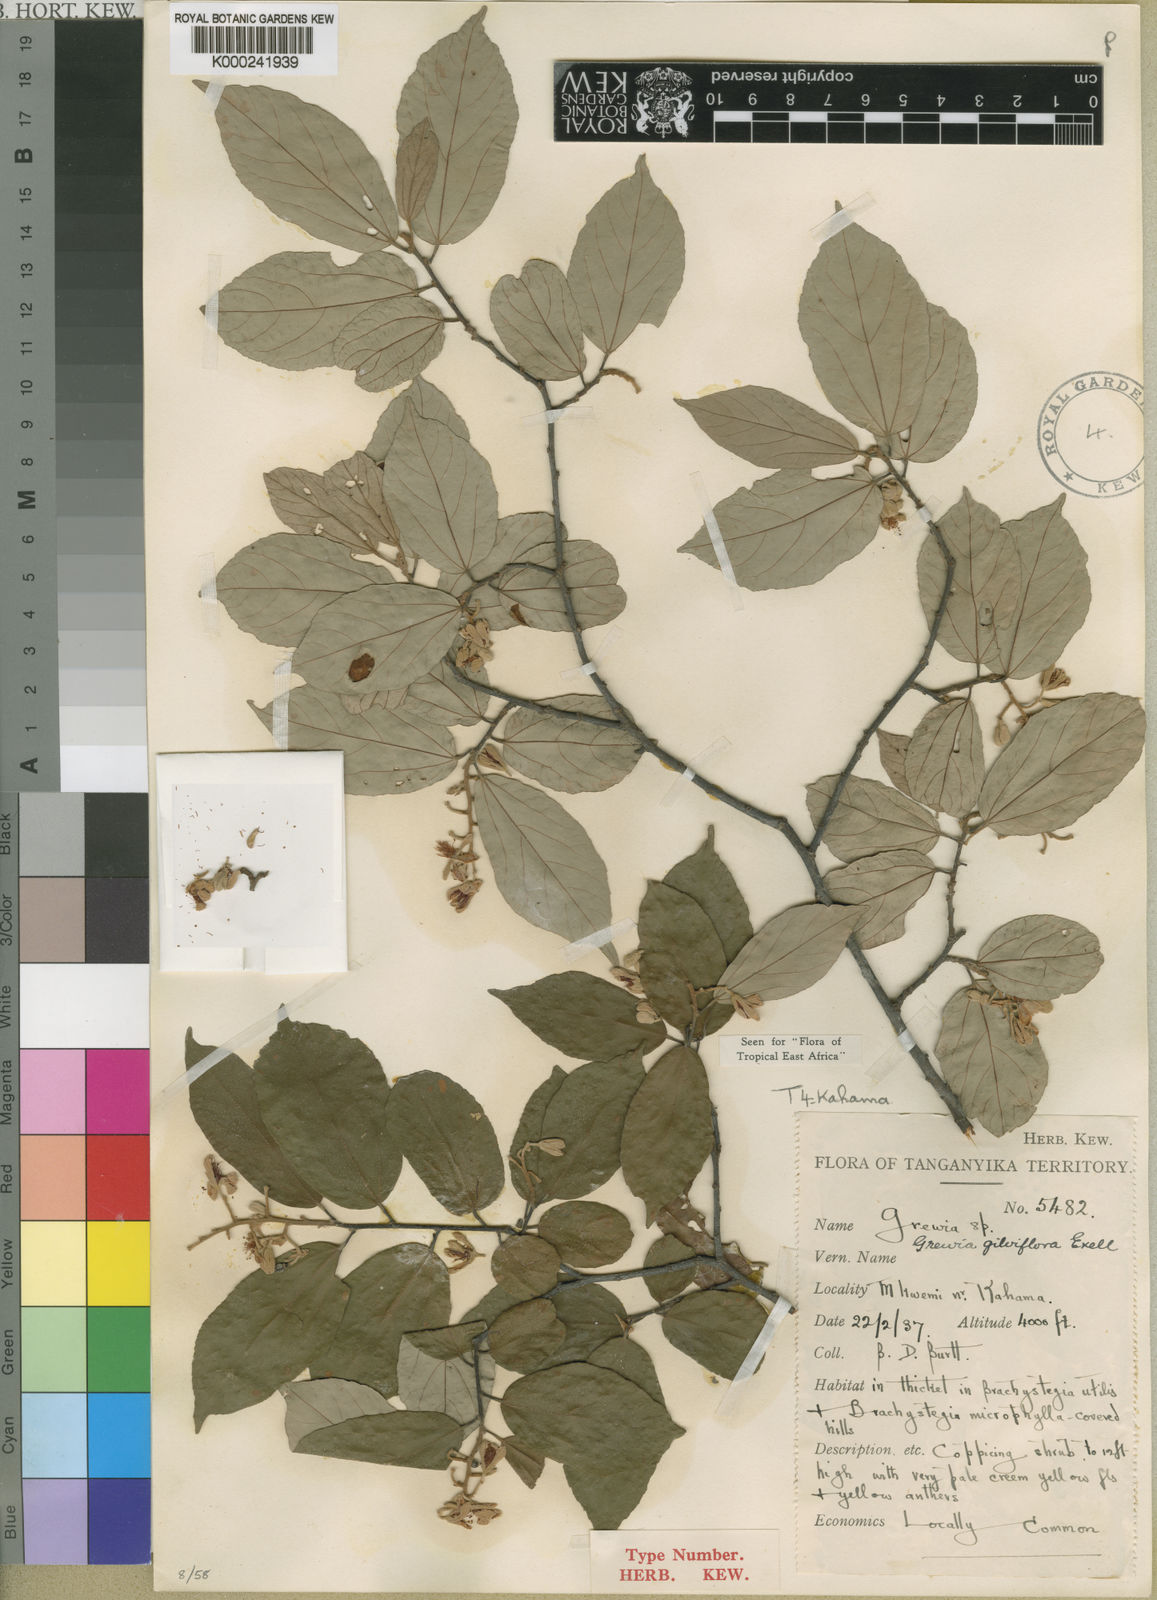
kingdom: Plantae
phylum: Tracheophyta
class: Magnoliopsida
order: Malvales
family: Malvaceae
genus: Microcos
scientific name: Microcos conocarpoides
